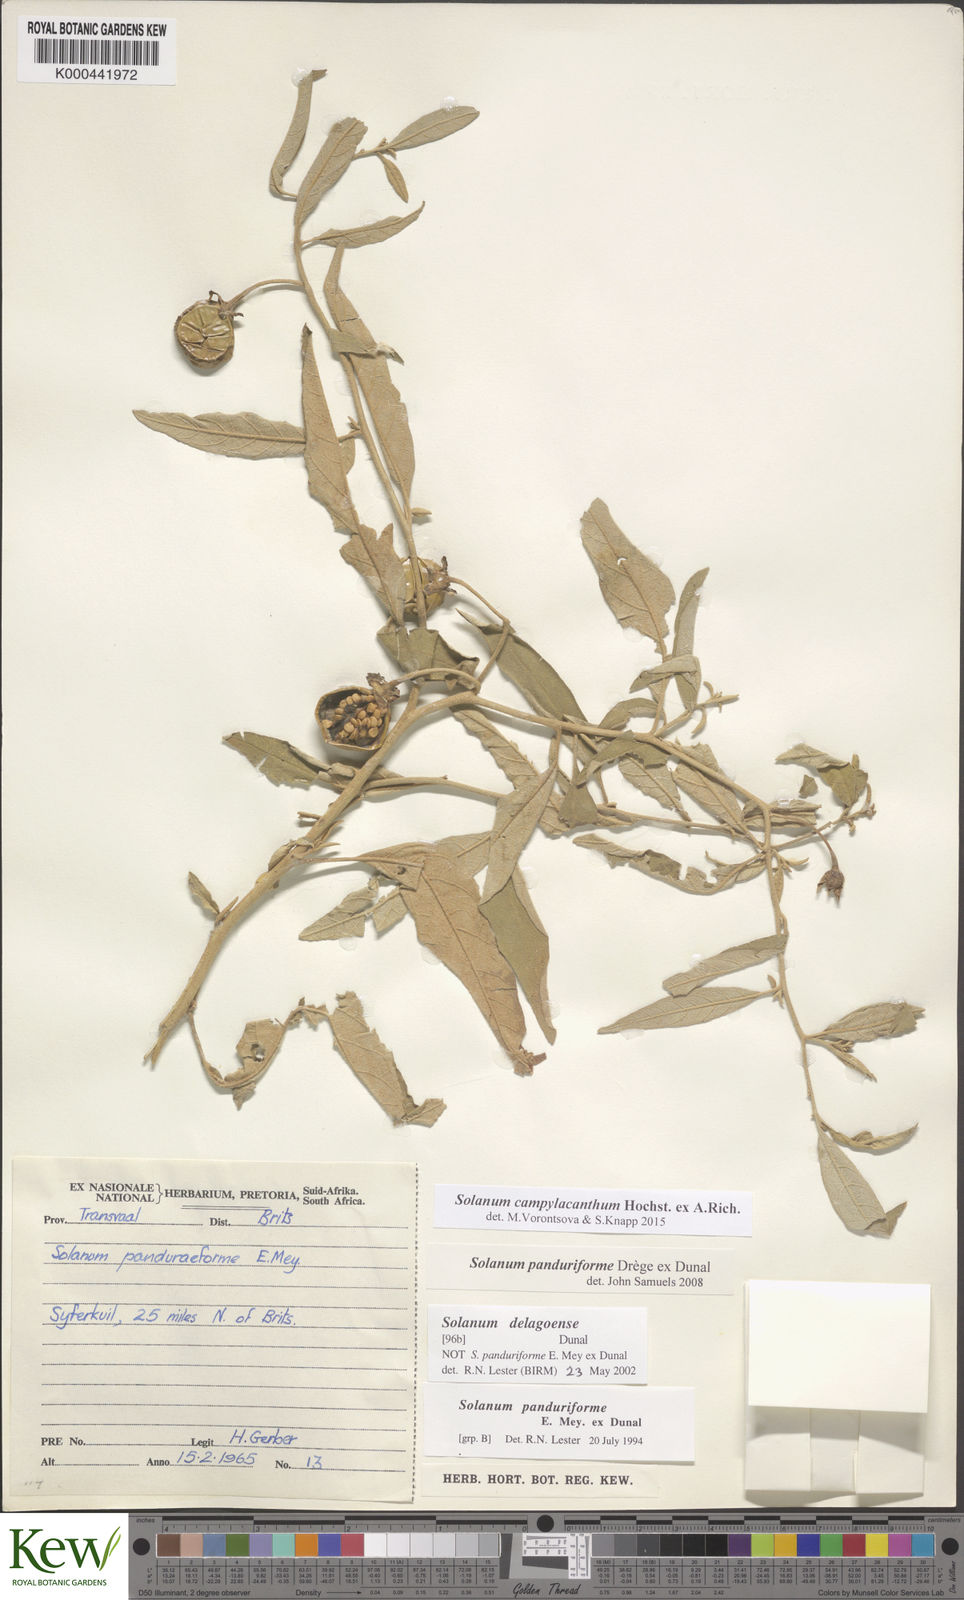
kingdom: Plantae
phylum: Tracheophyta
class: Magnoliopsida
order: Solanales
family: Solanaceae
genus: Solanum
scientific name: Solanum campylacanthum
